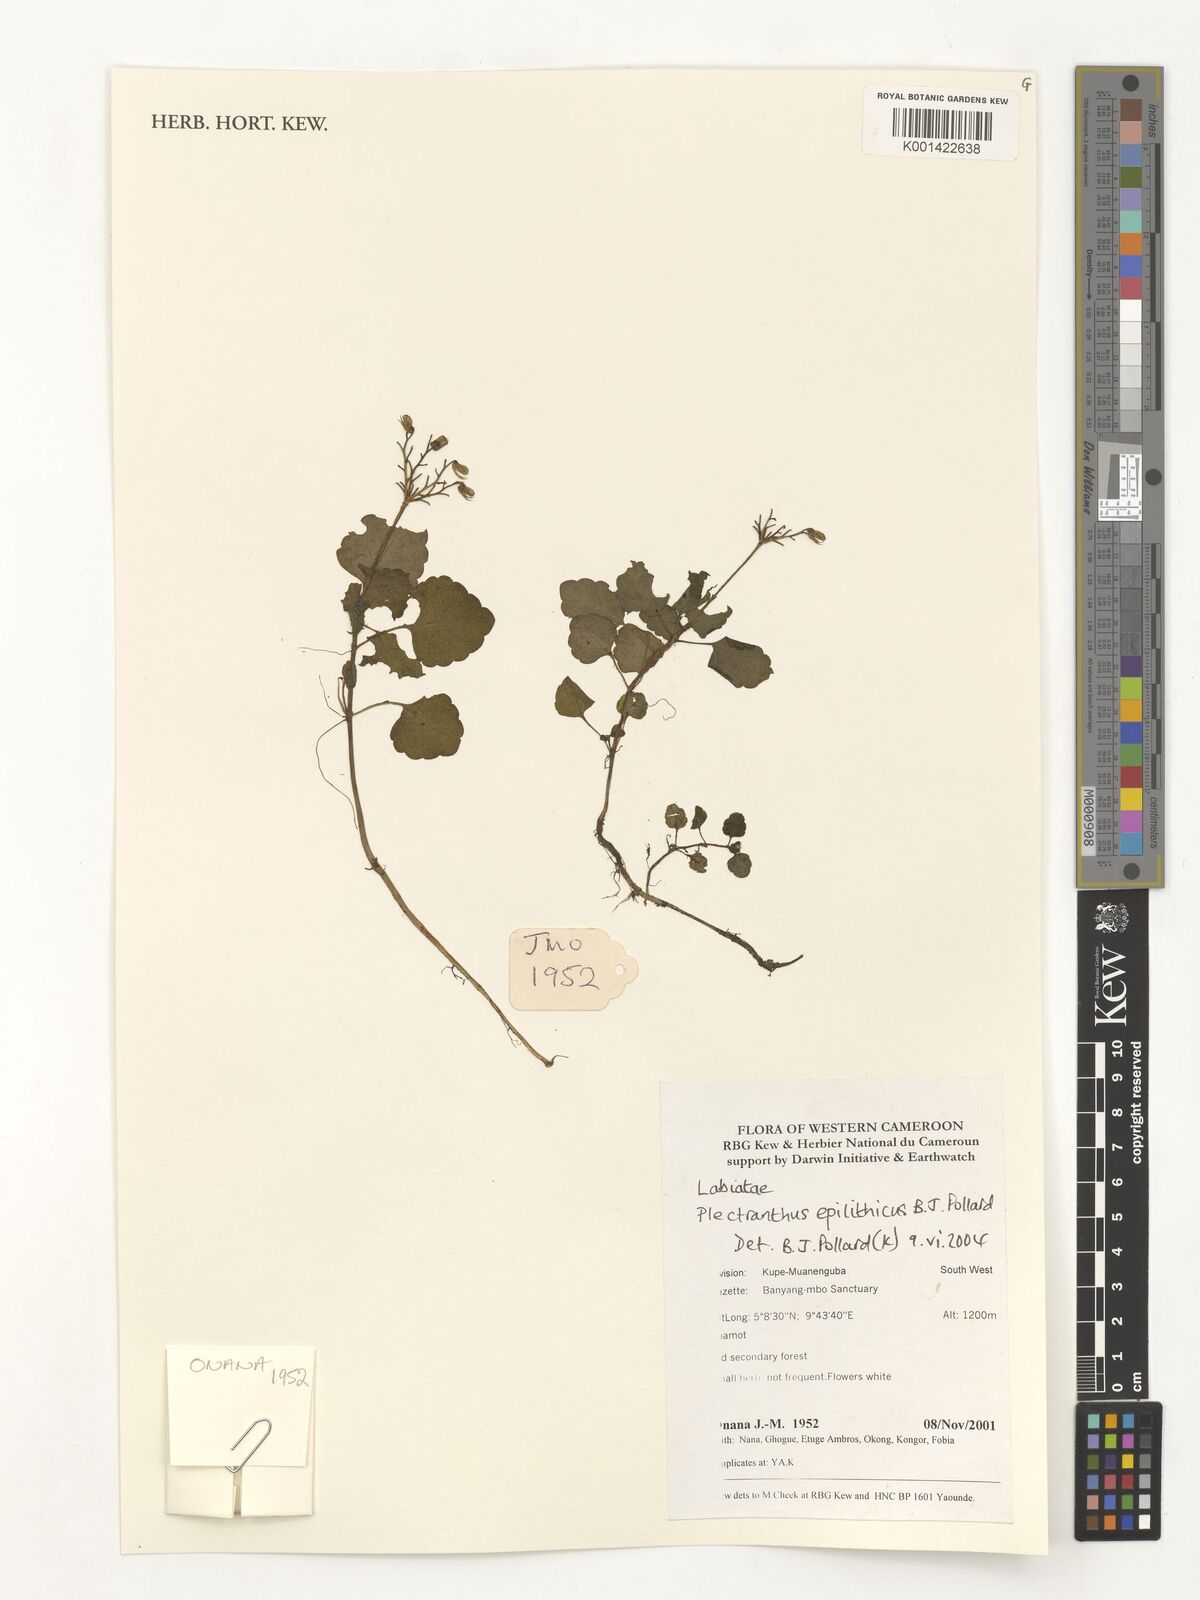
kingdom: Plantae
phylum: Tracheophyta
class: Magnoliopsida
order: Lamiales
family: Lamiaceae
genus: Coleus
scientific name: Coleus repens
